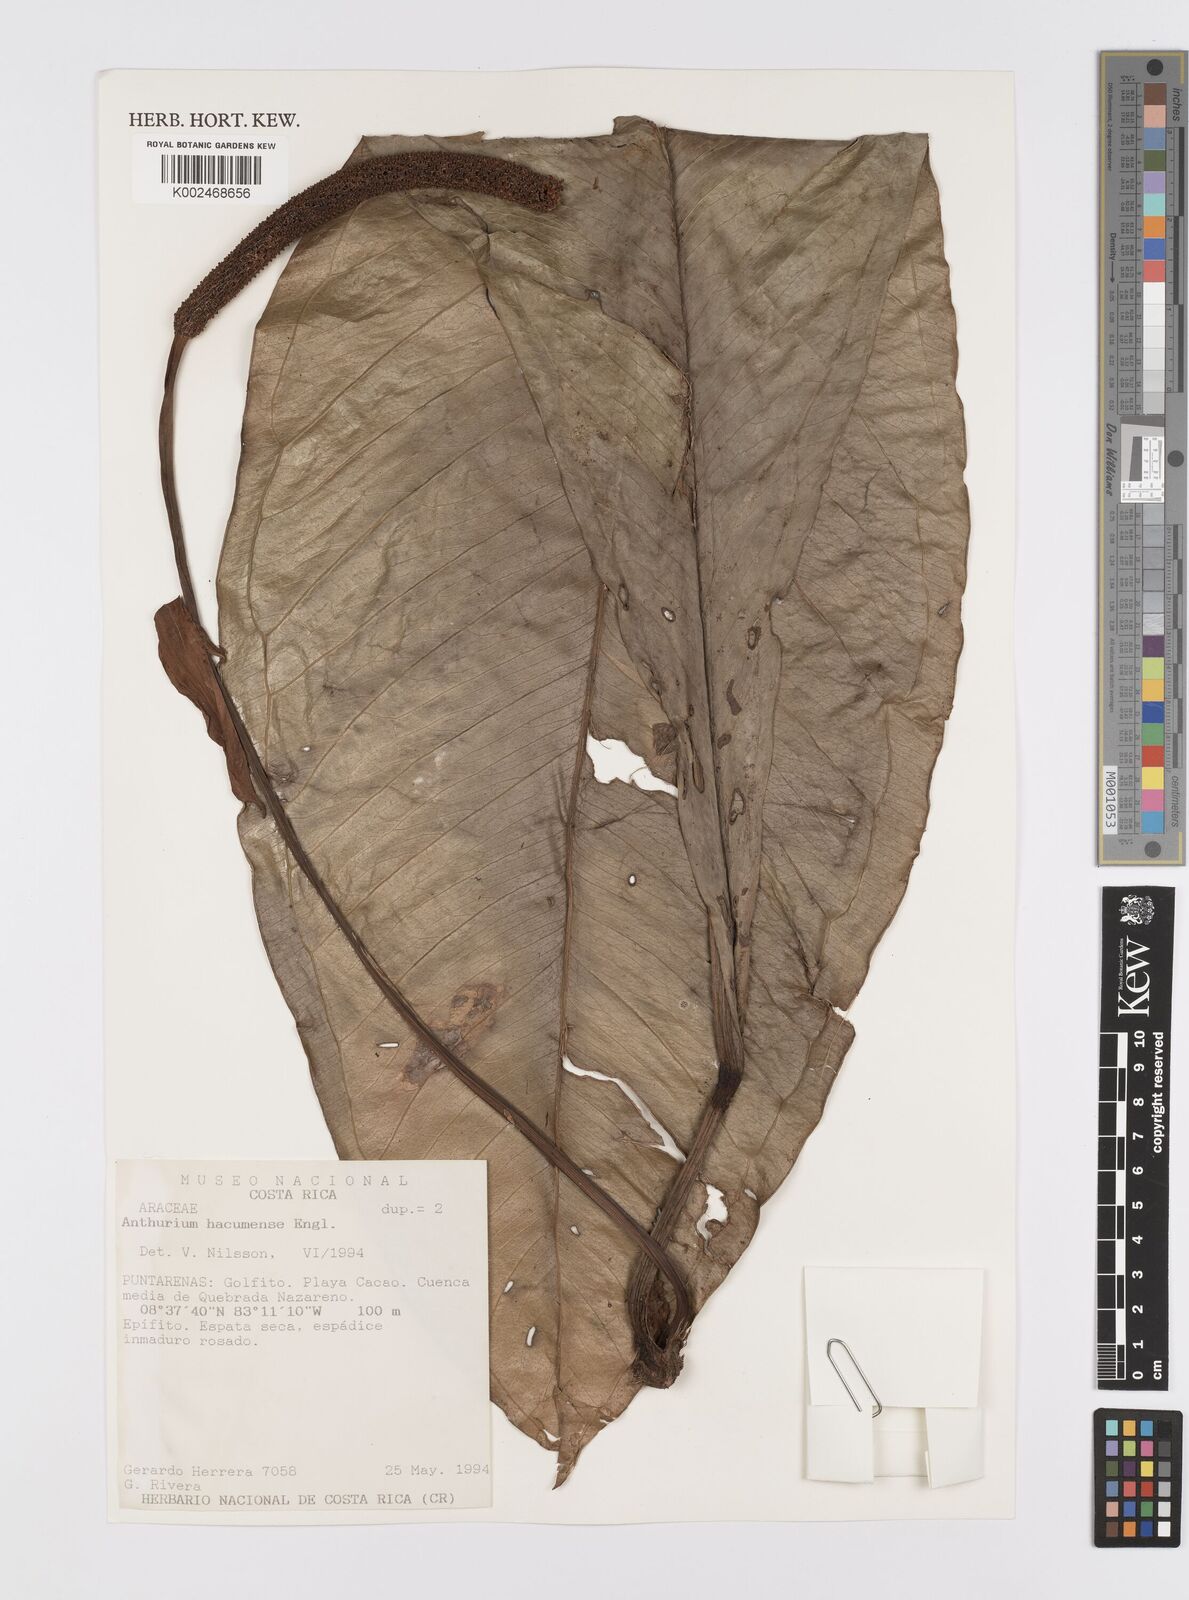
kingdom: Plantae
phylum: Tracheophyta
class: Liliopsida
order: Alismatales
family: Araceae
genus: Anthurium
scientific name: Anthurium hacumense
